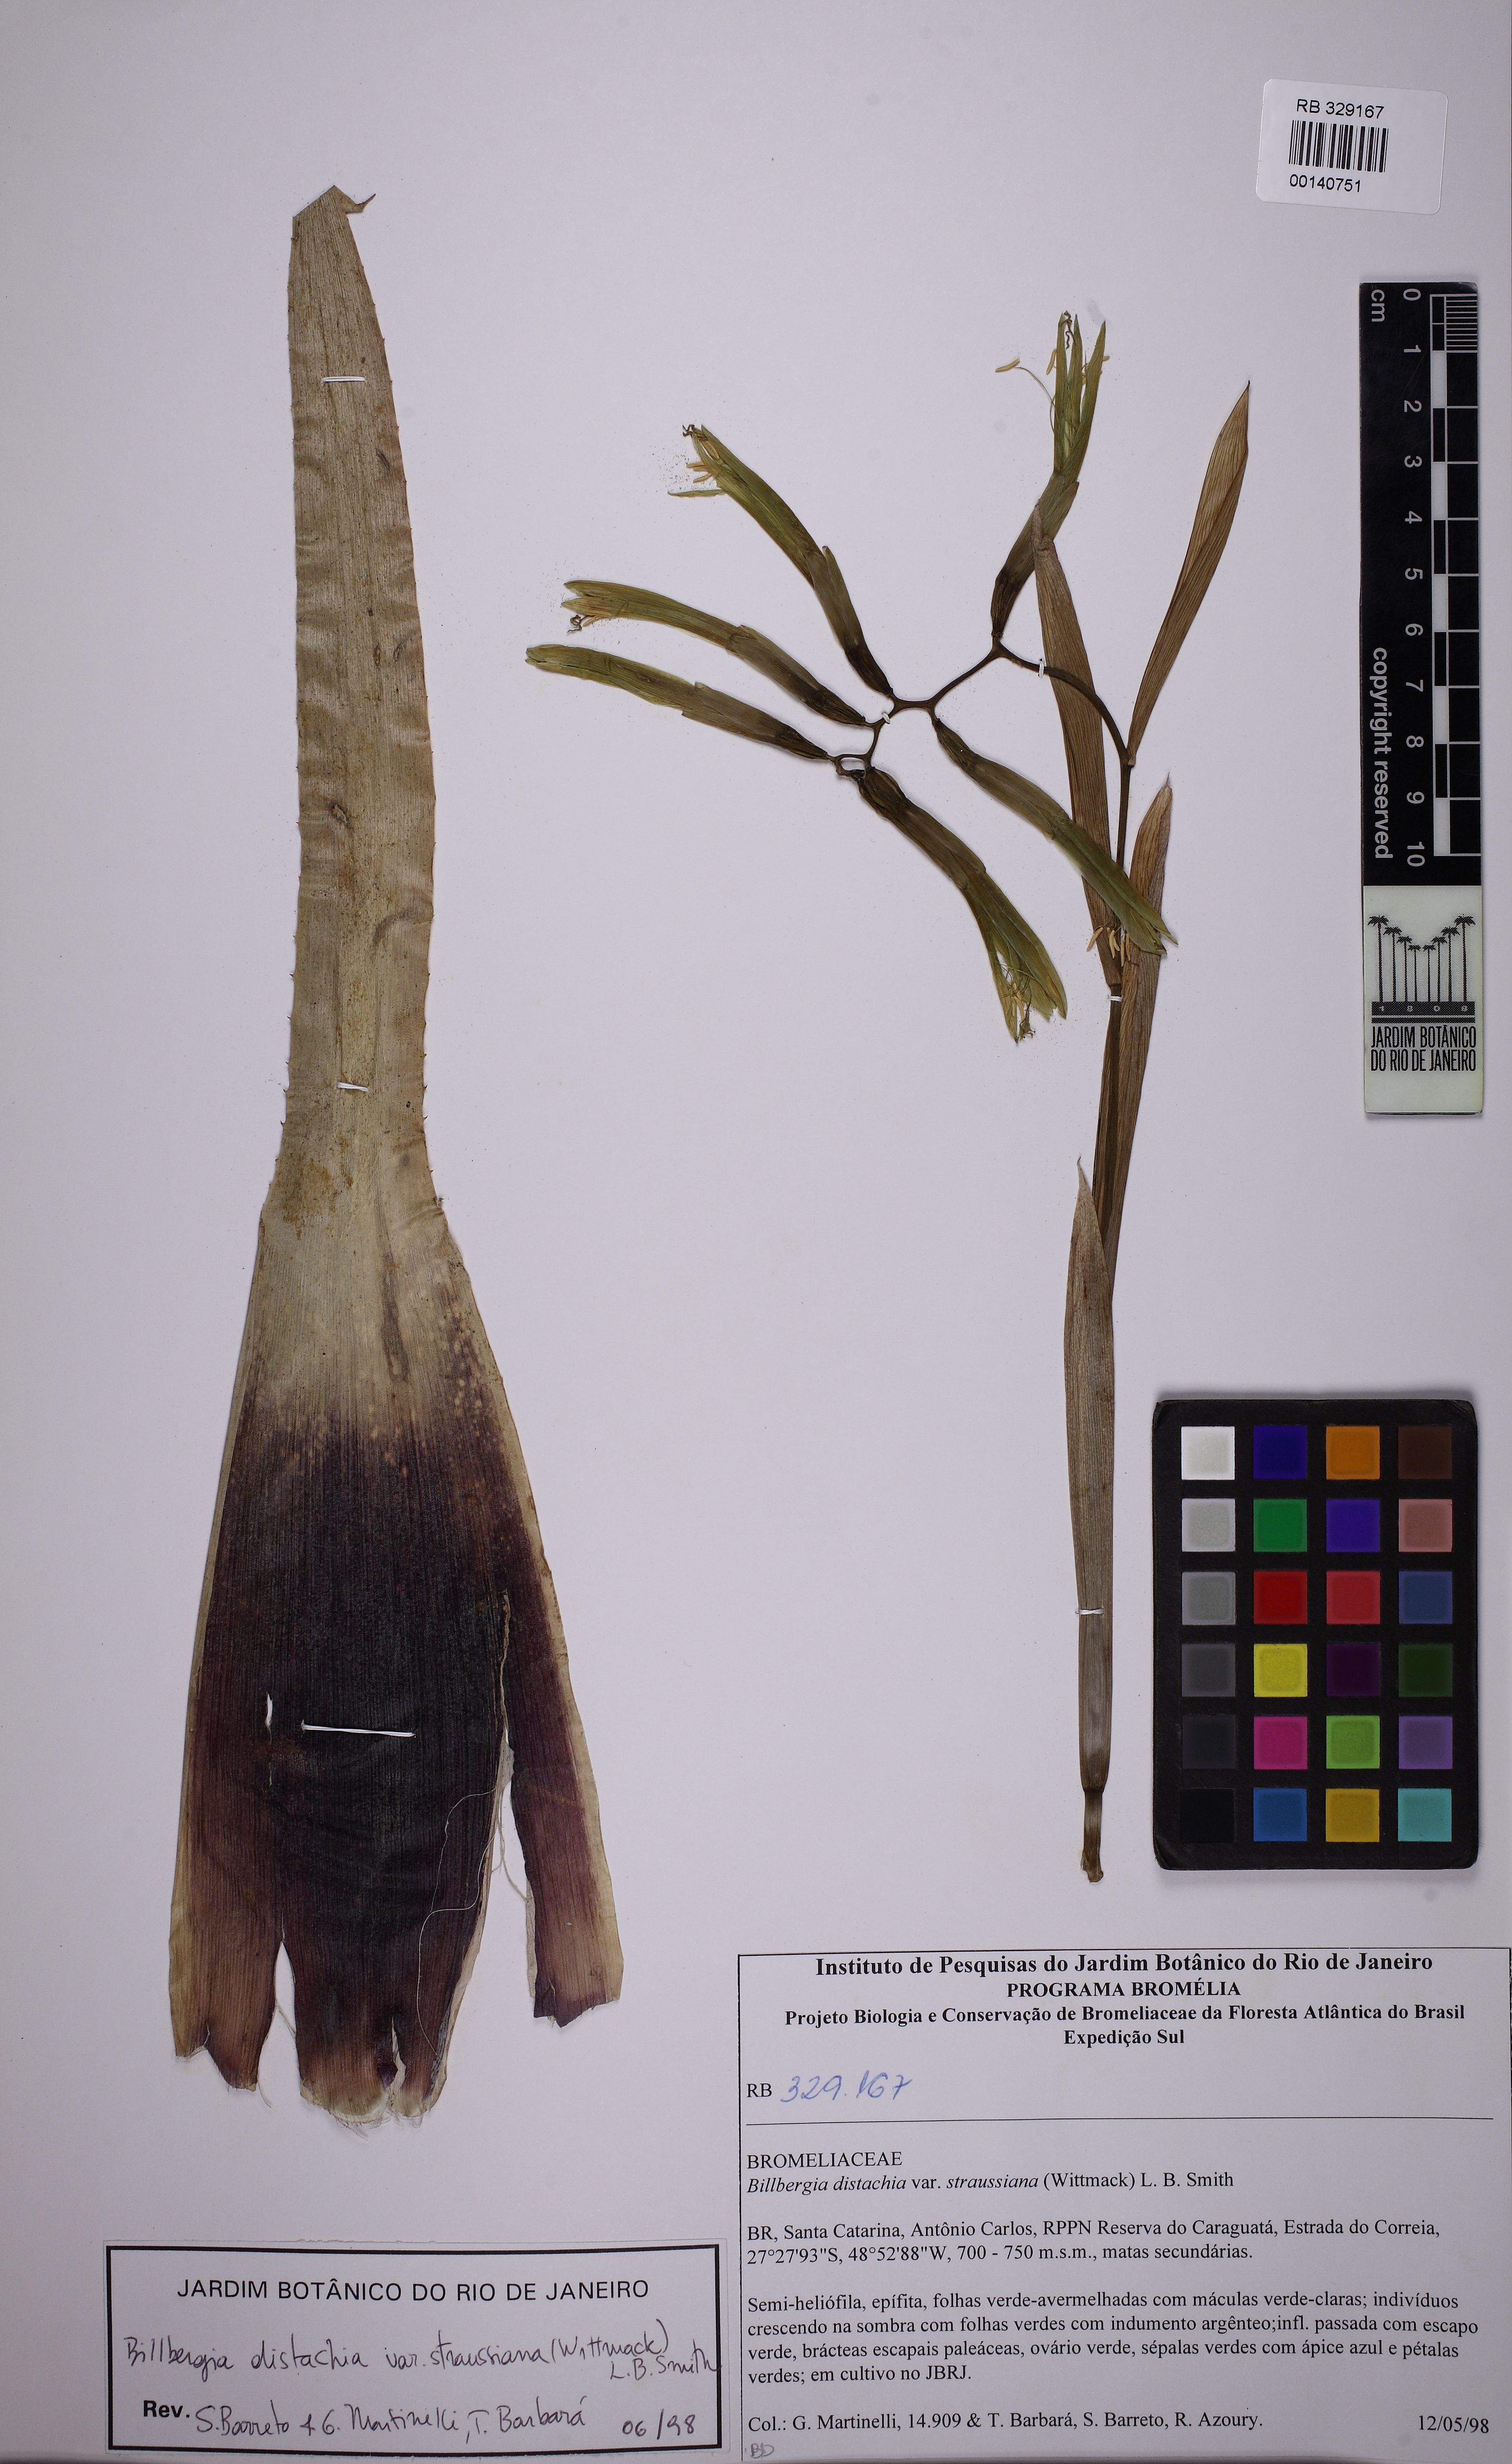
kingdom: Plantae
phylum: Tracheophyta
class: Liliopsida
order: Poales
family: Bromeliaceae
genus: Billbergia
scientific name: Billbergia distachia
